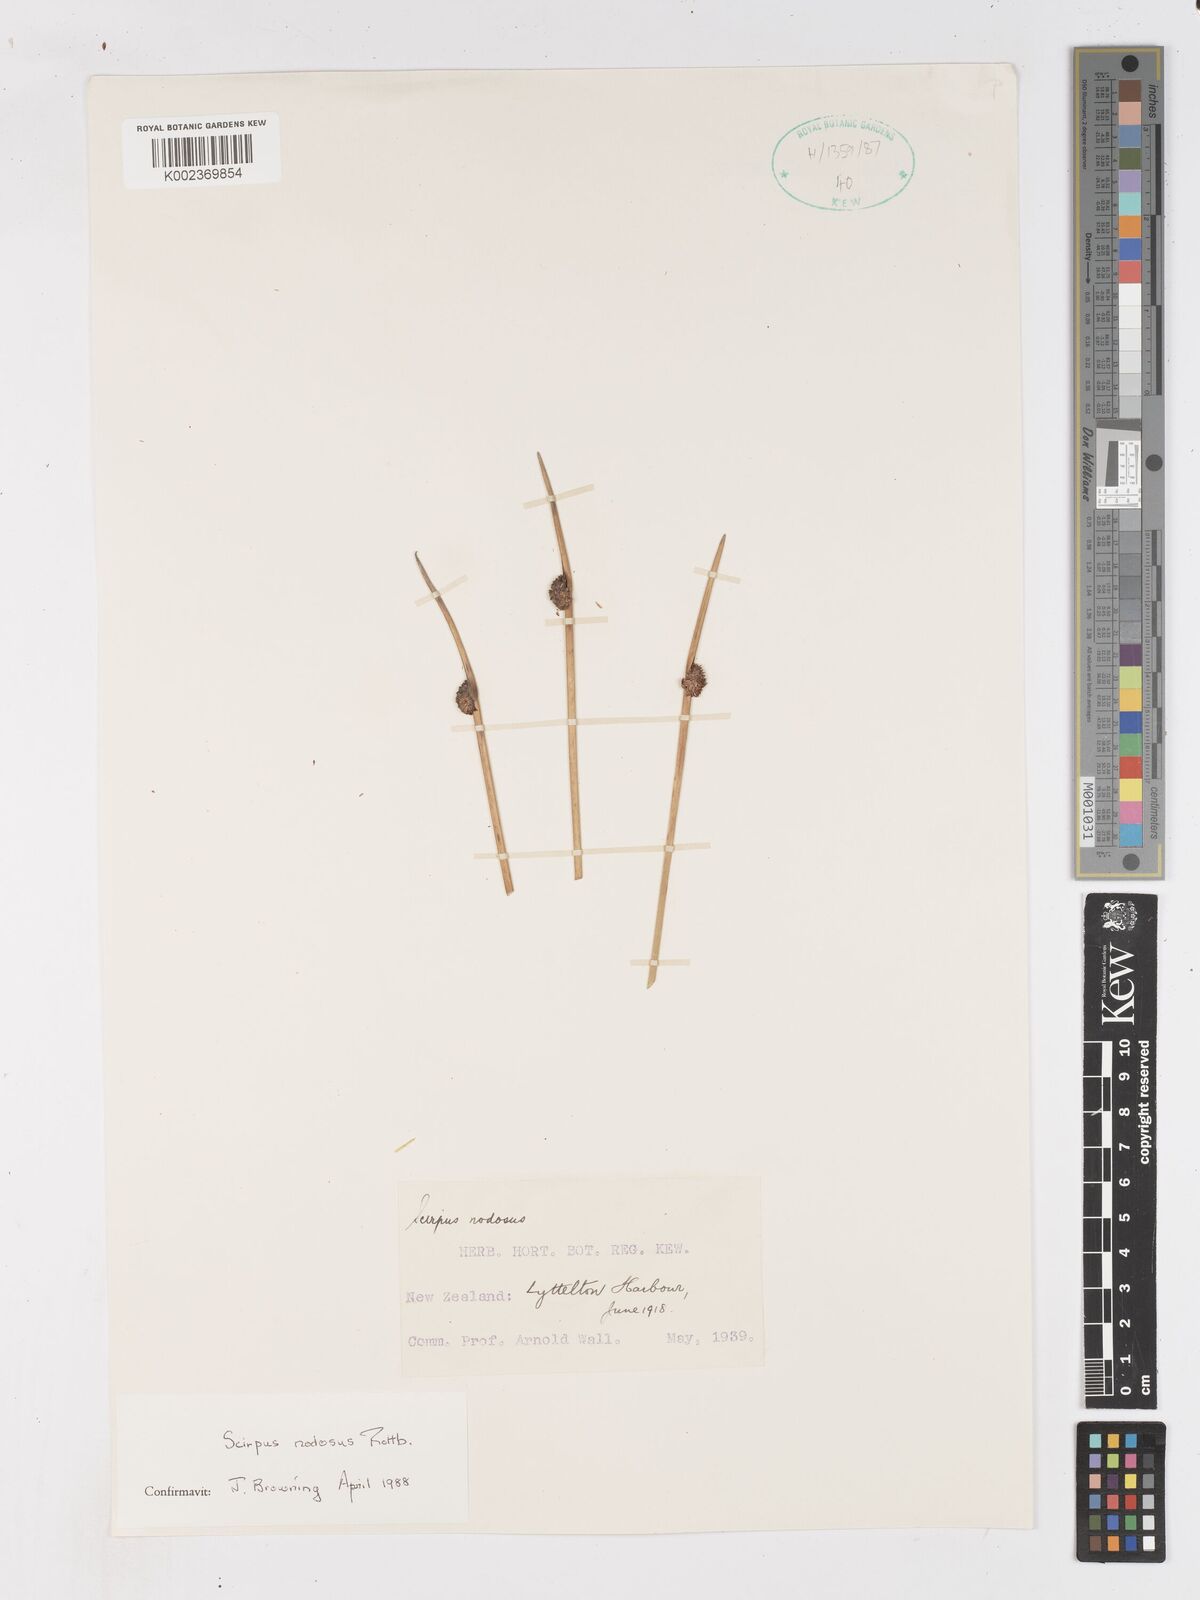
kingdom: Plantae
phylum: Tracheophyta
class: Liliopsida
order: Poales
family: Cyperaceae
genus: Ficinia
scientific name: Ficinia nodosa
